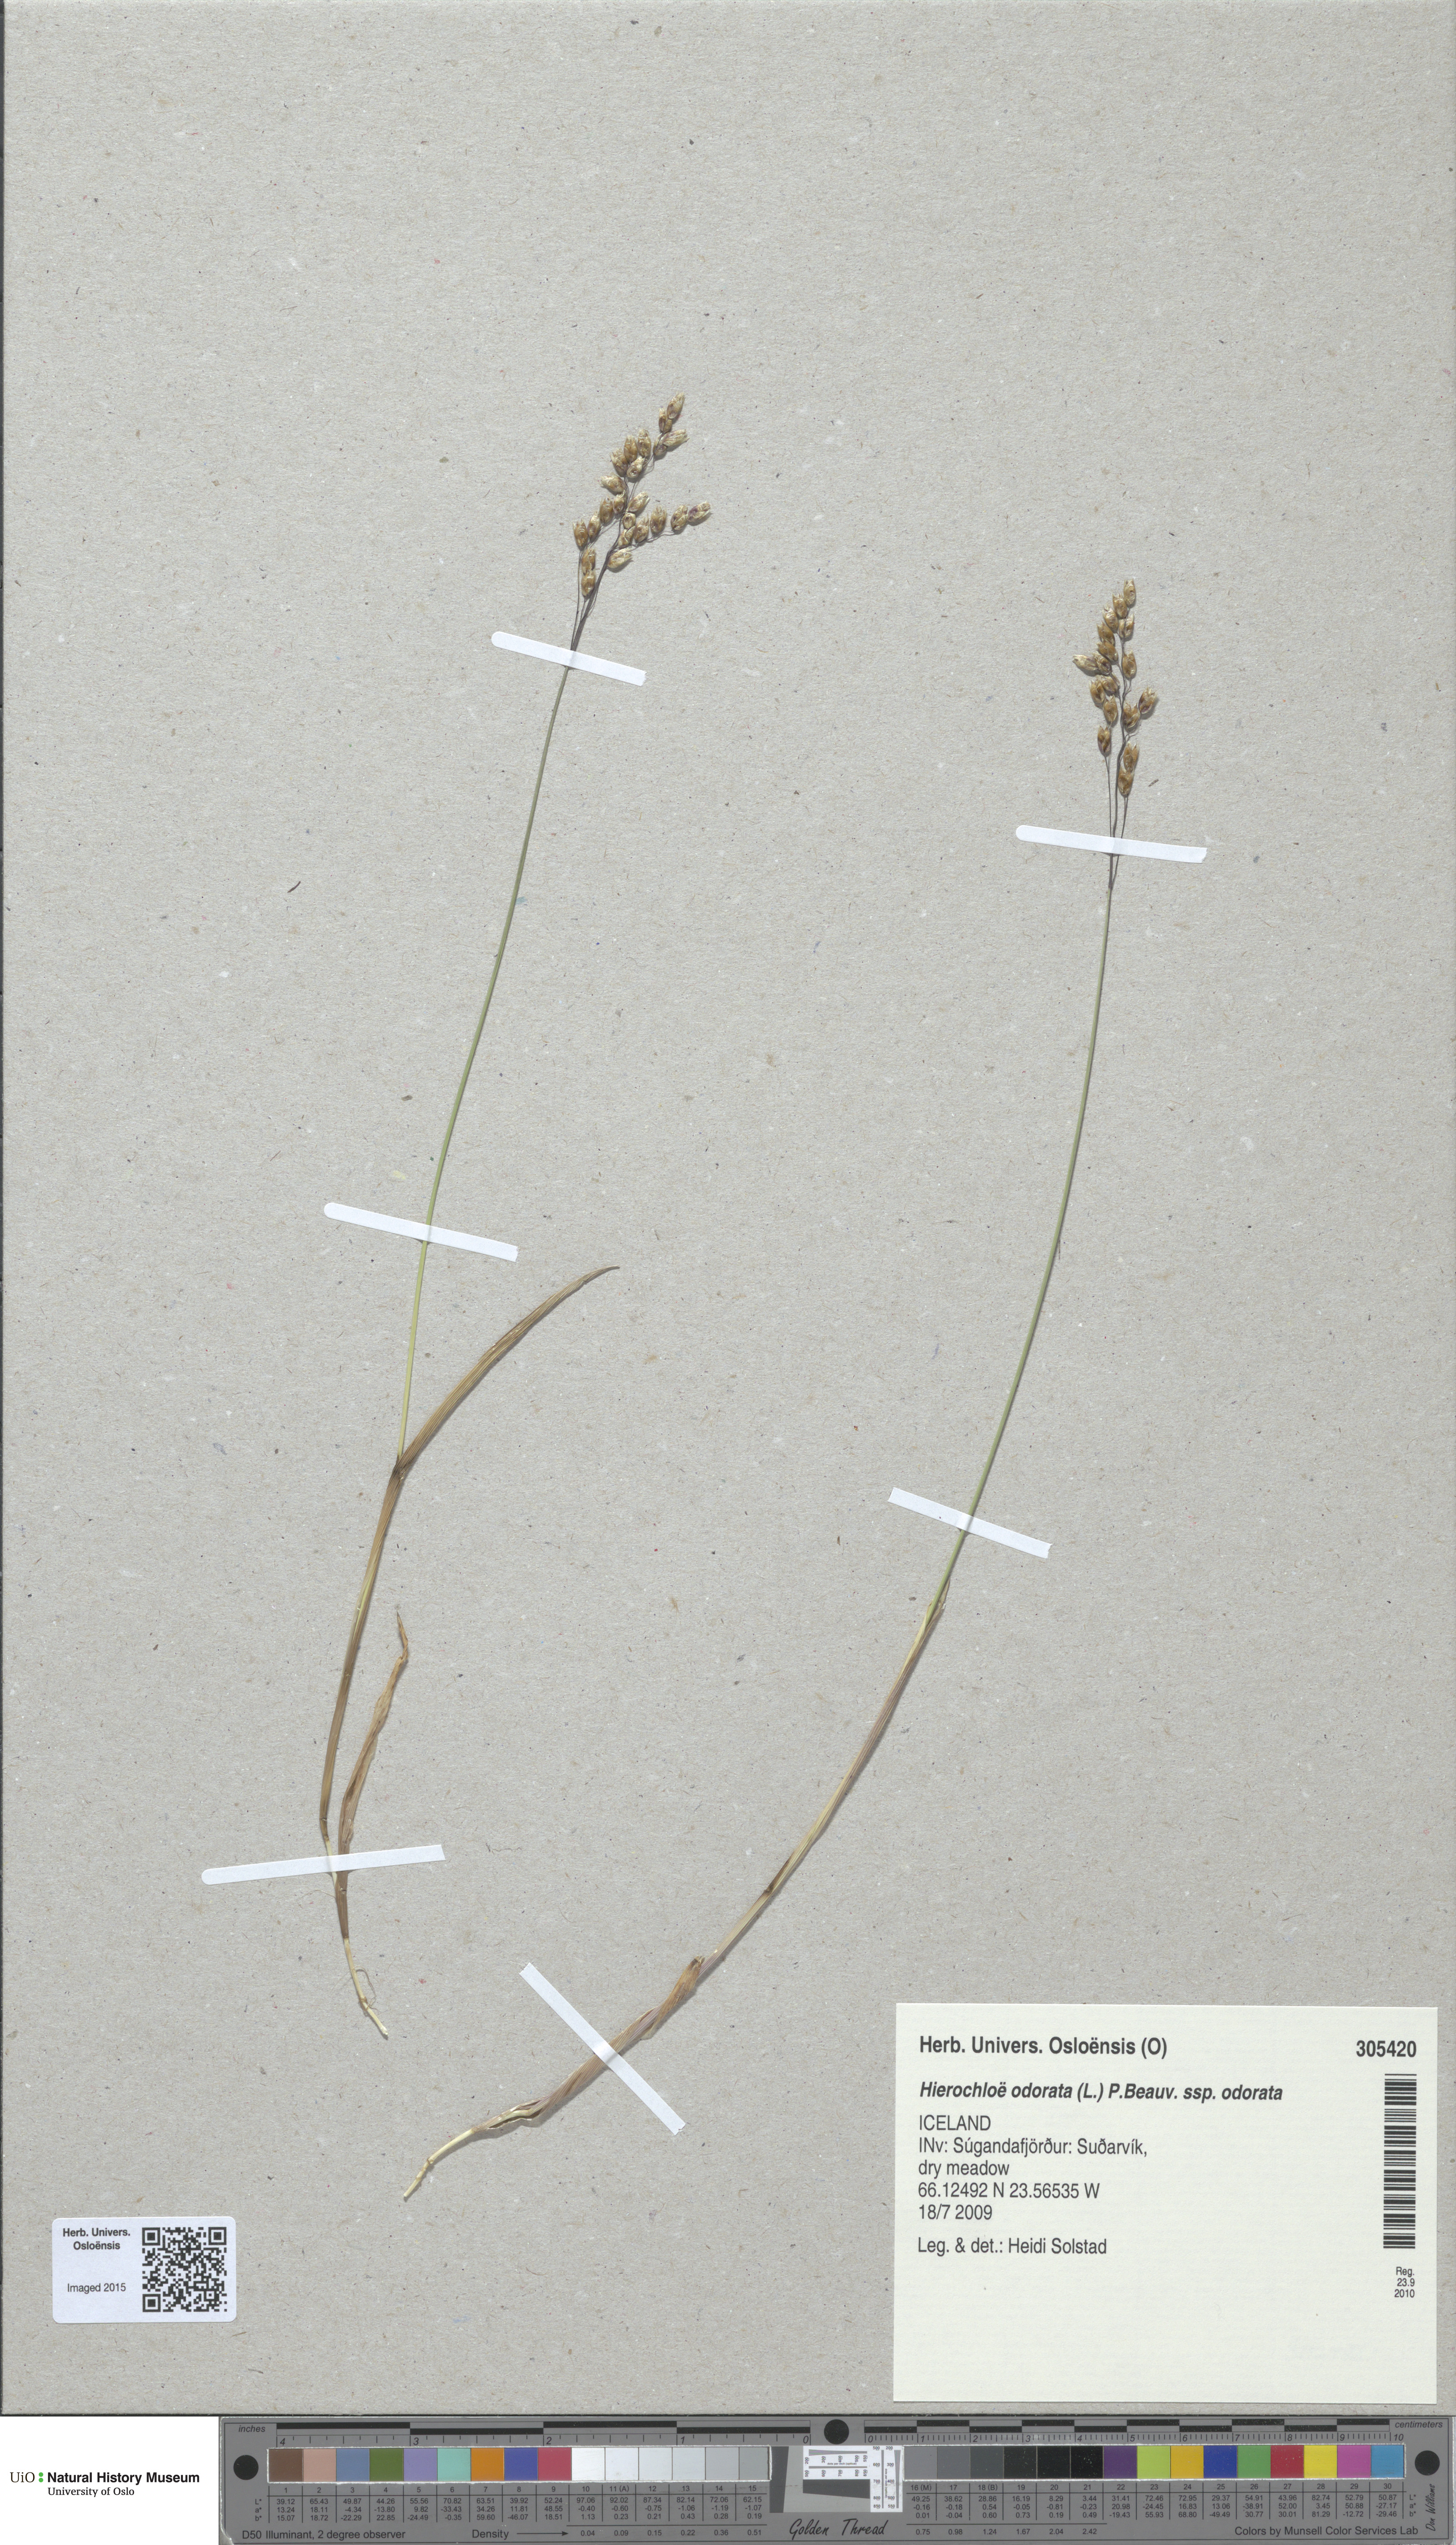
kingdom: Plantae
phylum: Tracheophyta
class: Liliopsida
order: Poales
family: Poaceae
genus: Anthoxanthum
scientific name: Anthoxanthum nitens
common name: Holy grass
